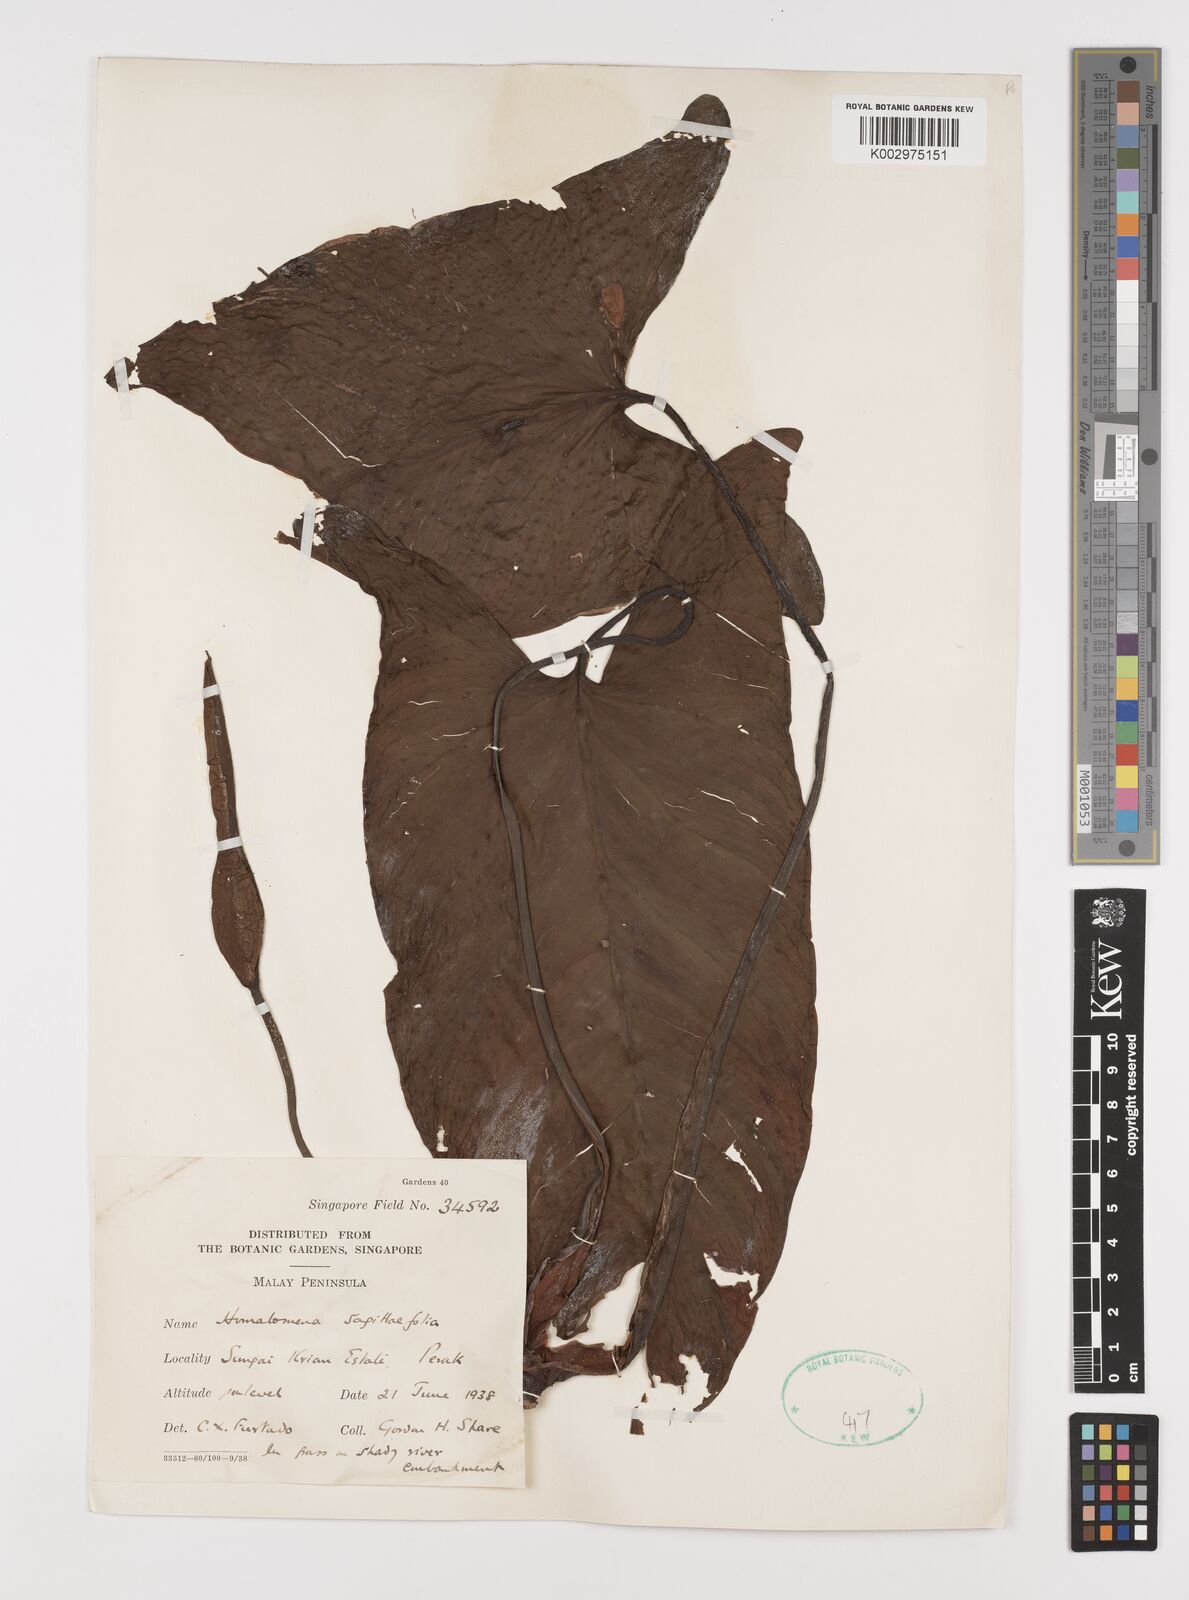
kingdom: Plantae
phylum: Tracheophyta
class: Liliopsida
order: Alismatales
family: Araceae
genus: Homalomena
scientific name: Homalomena rostrata
